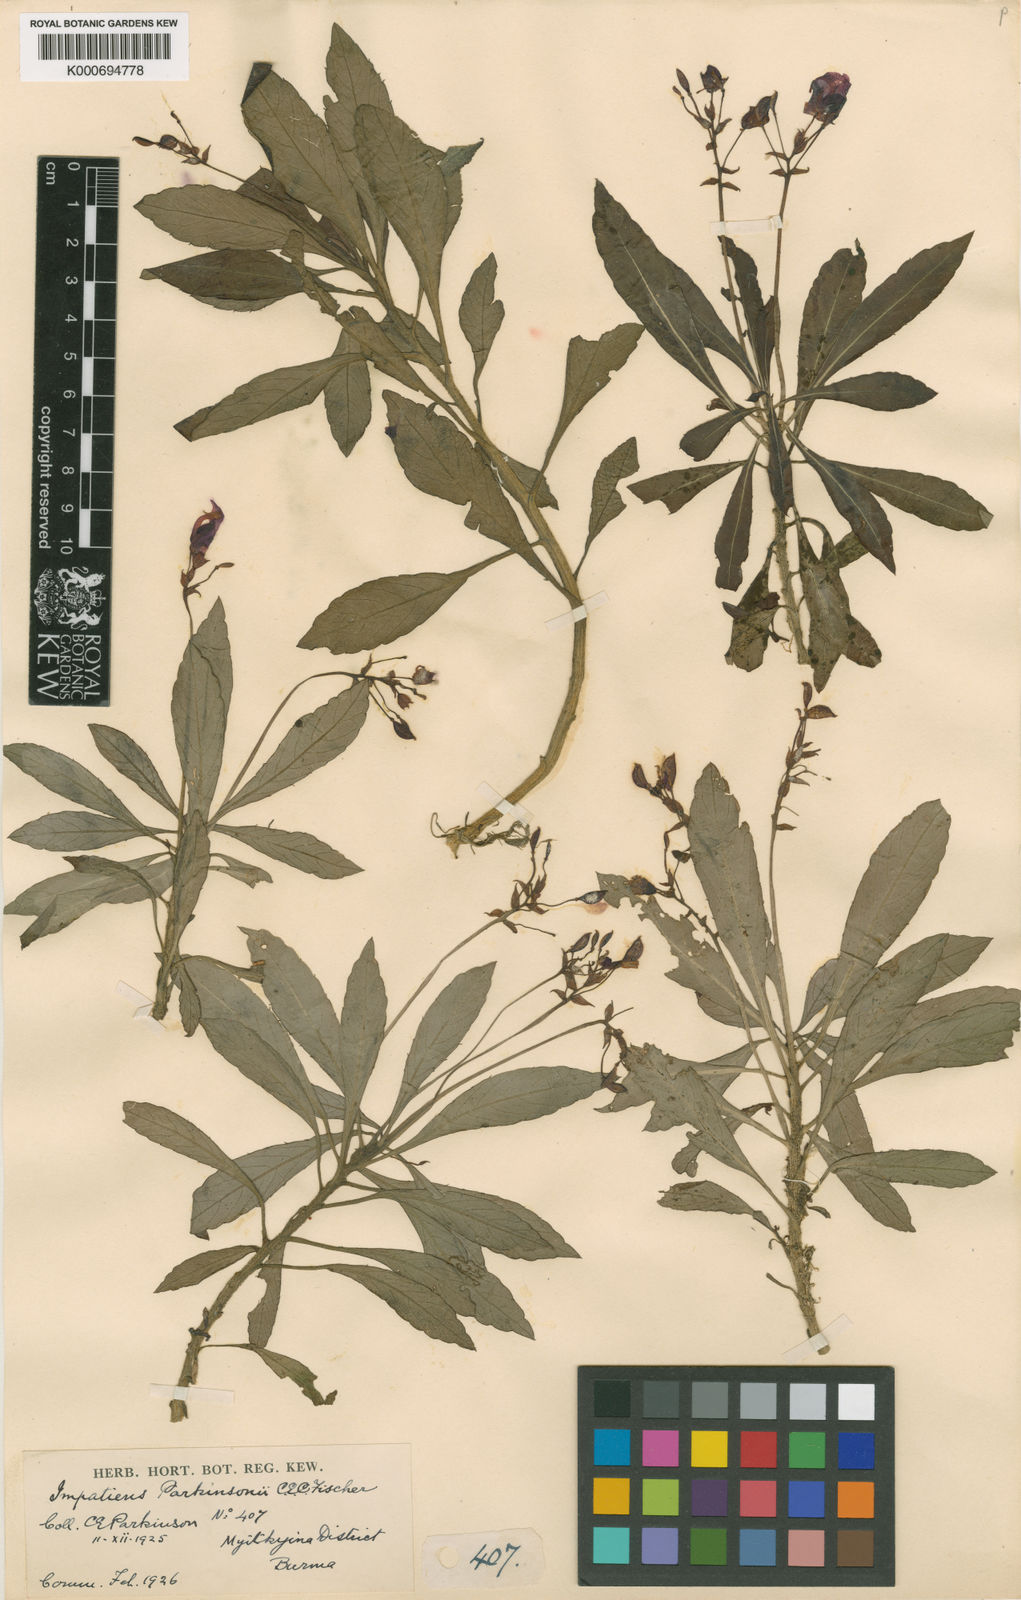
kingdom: Plantae
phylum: Tracheophyta
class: Magnoliopsida
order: Ericales
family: Balsaminaceae
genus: Impatiens
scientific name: Impatiens parkinsonii
